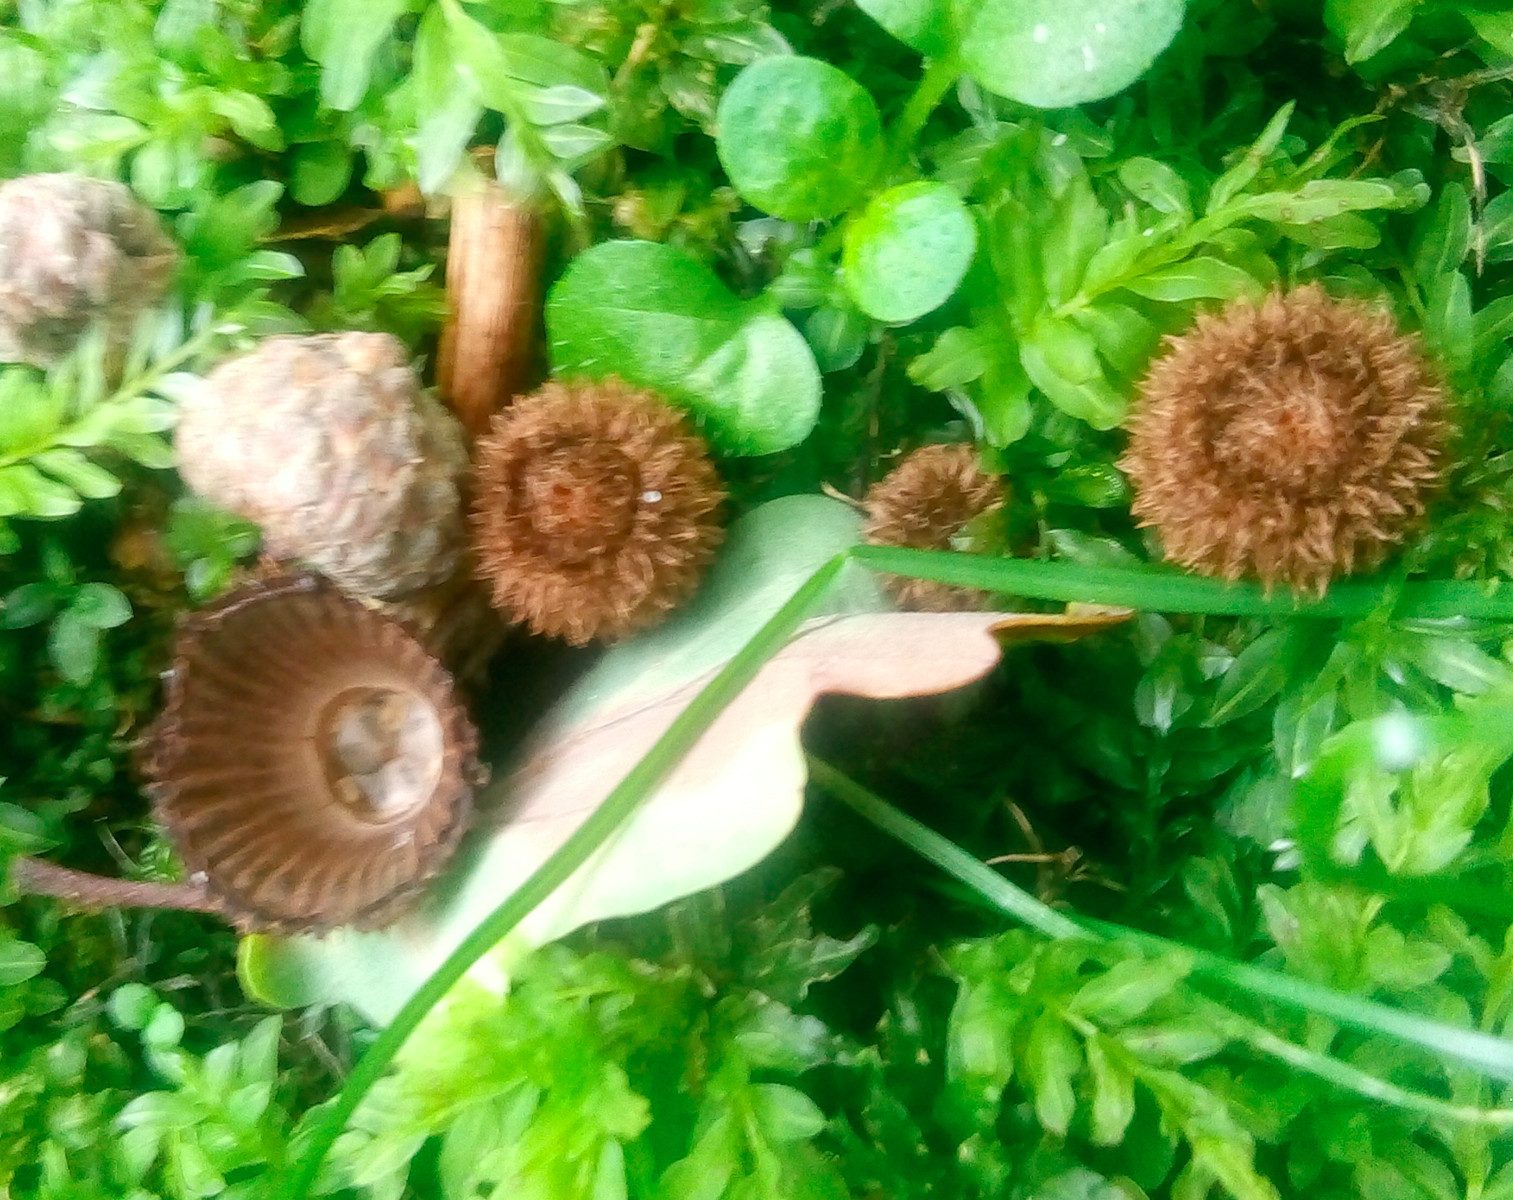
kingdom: Fungi
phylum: Basidiomycota
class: Agaricomycetes
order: Agaricales
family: Agaricaceae
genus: Cyathus
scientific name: Cyathus striatus
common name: stribet redesvamp
